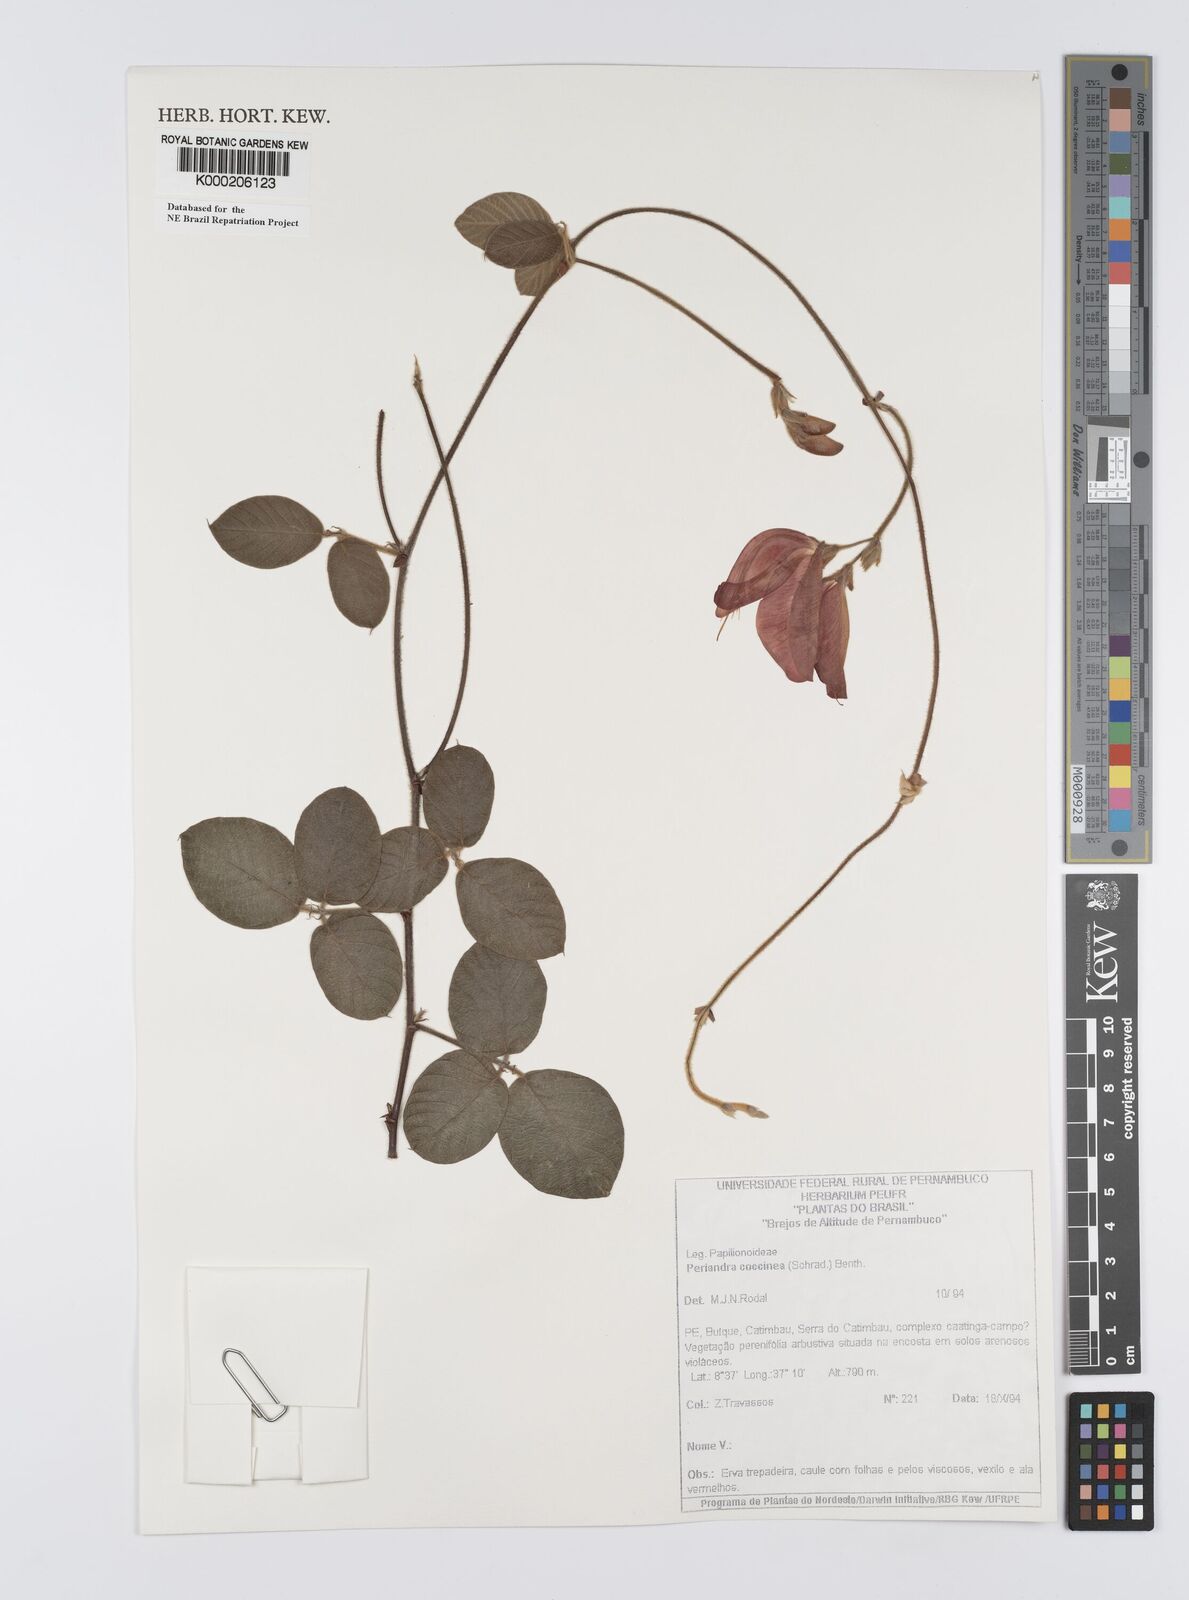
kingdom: Plantae
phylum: Tracheophyta
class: Magnoliopsida
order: Fabales
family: Fabaceae
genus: Periandra
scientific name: Periandra coccinea
